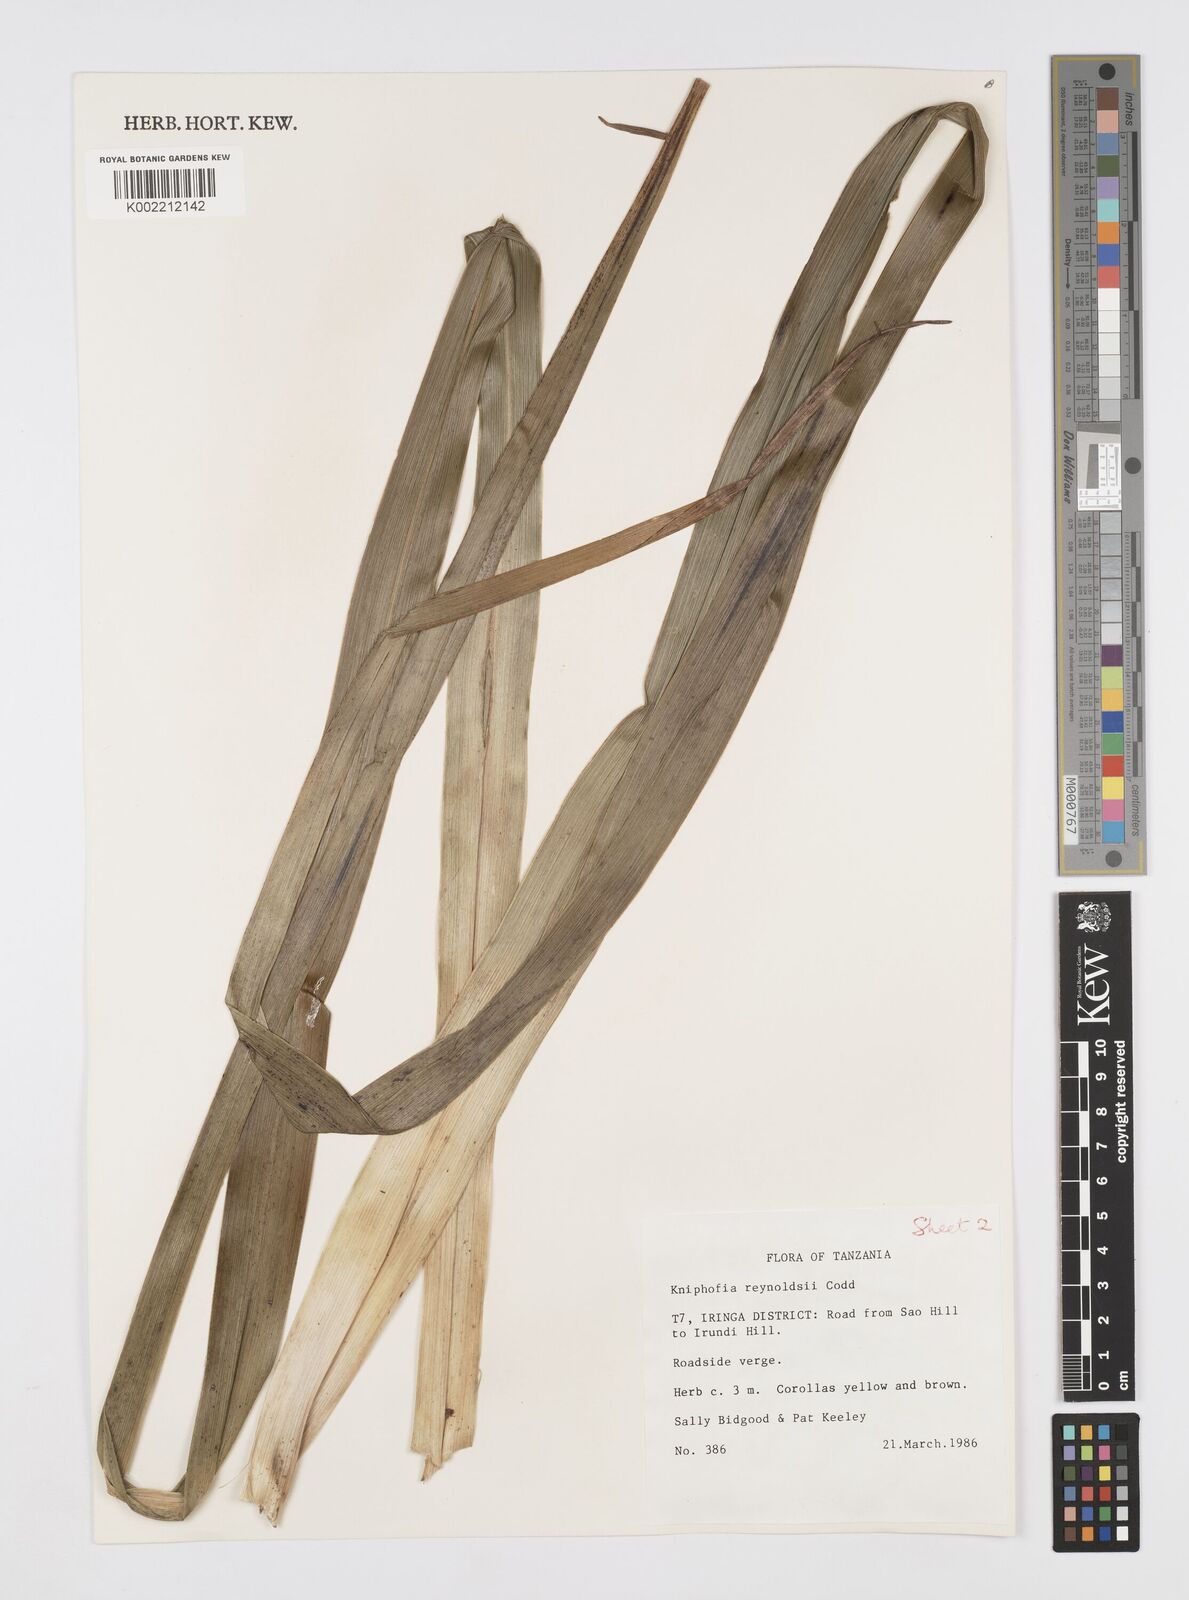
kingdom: Plantae
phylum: Tracheophyta
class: Liliopsida
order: Asparagales
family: Asphodelaceae
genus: Kniphofia
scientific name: Kniphofia reynoldsii
